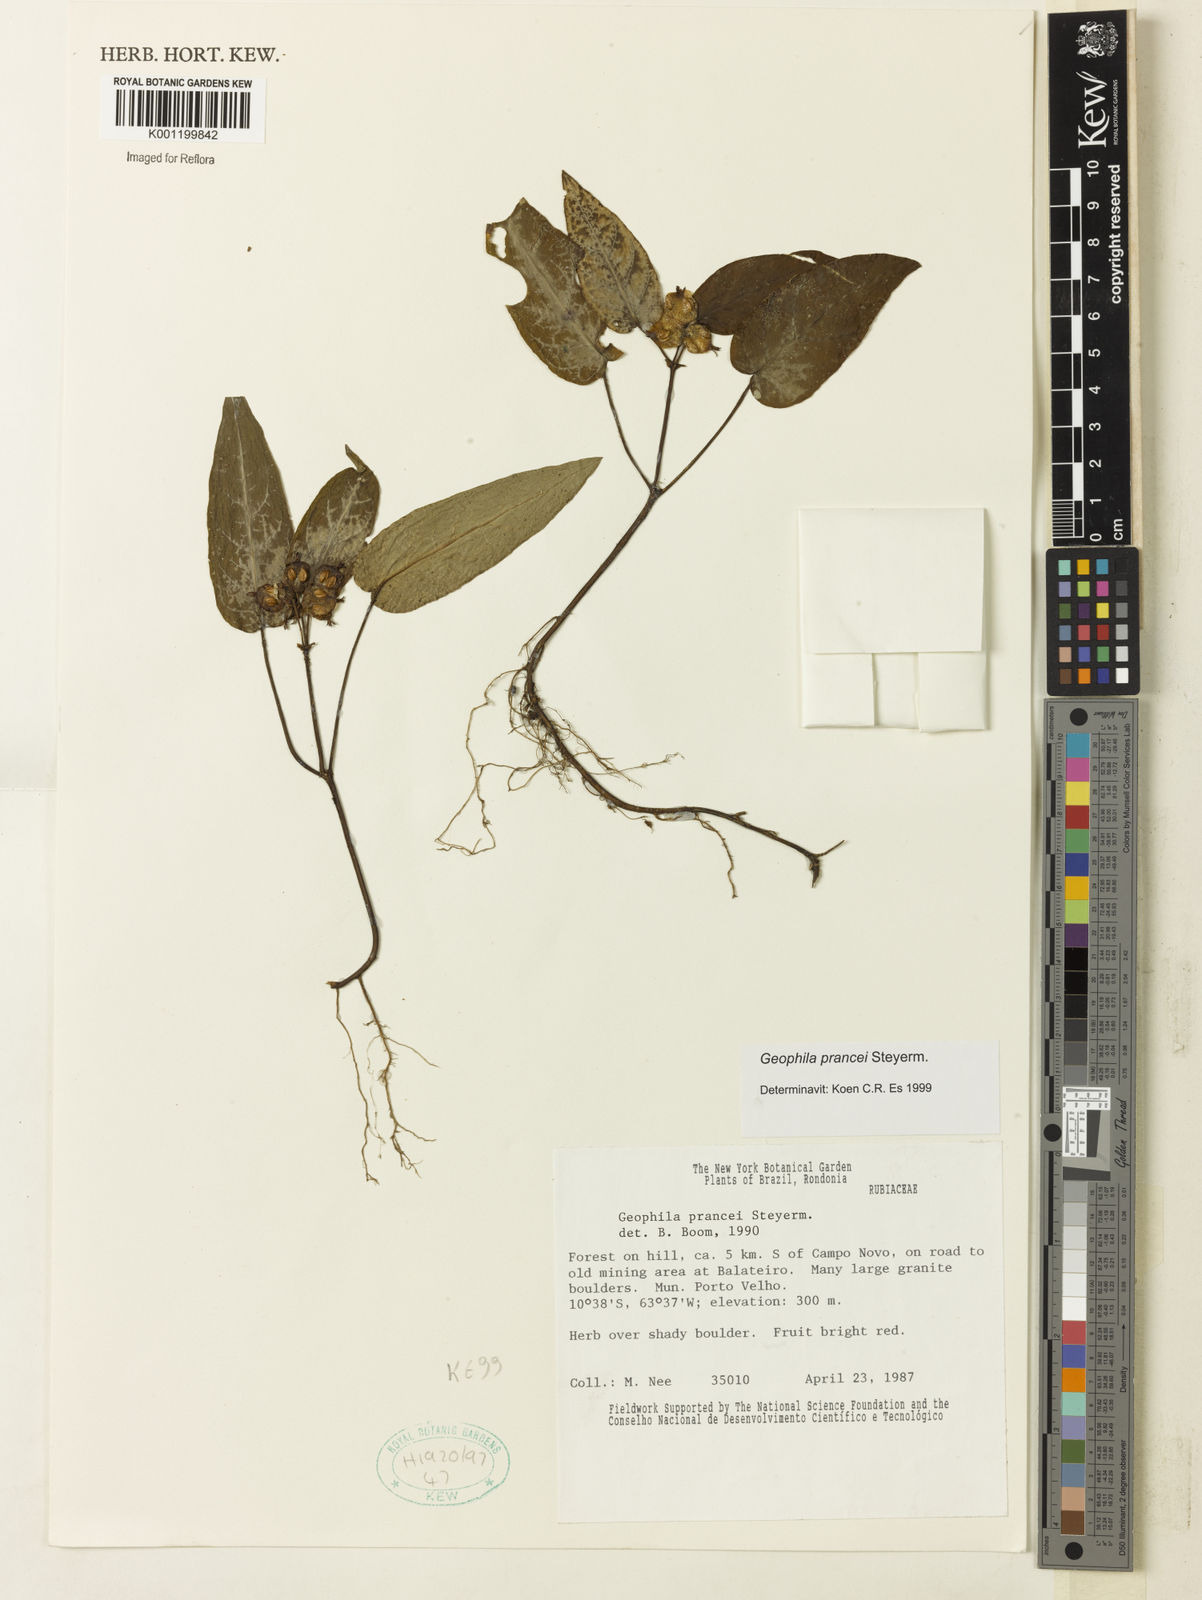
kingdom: Plantae
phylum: Tracheophyta
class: Magnoliopsida
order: Gentianales
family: Rubiaceae
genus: Geophila
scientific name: Geophila prancei
